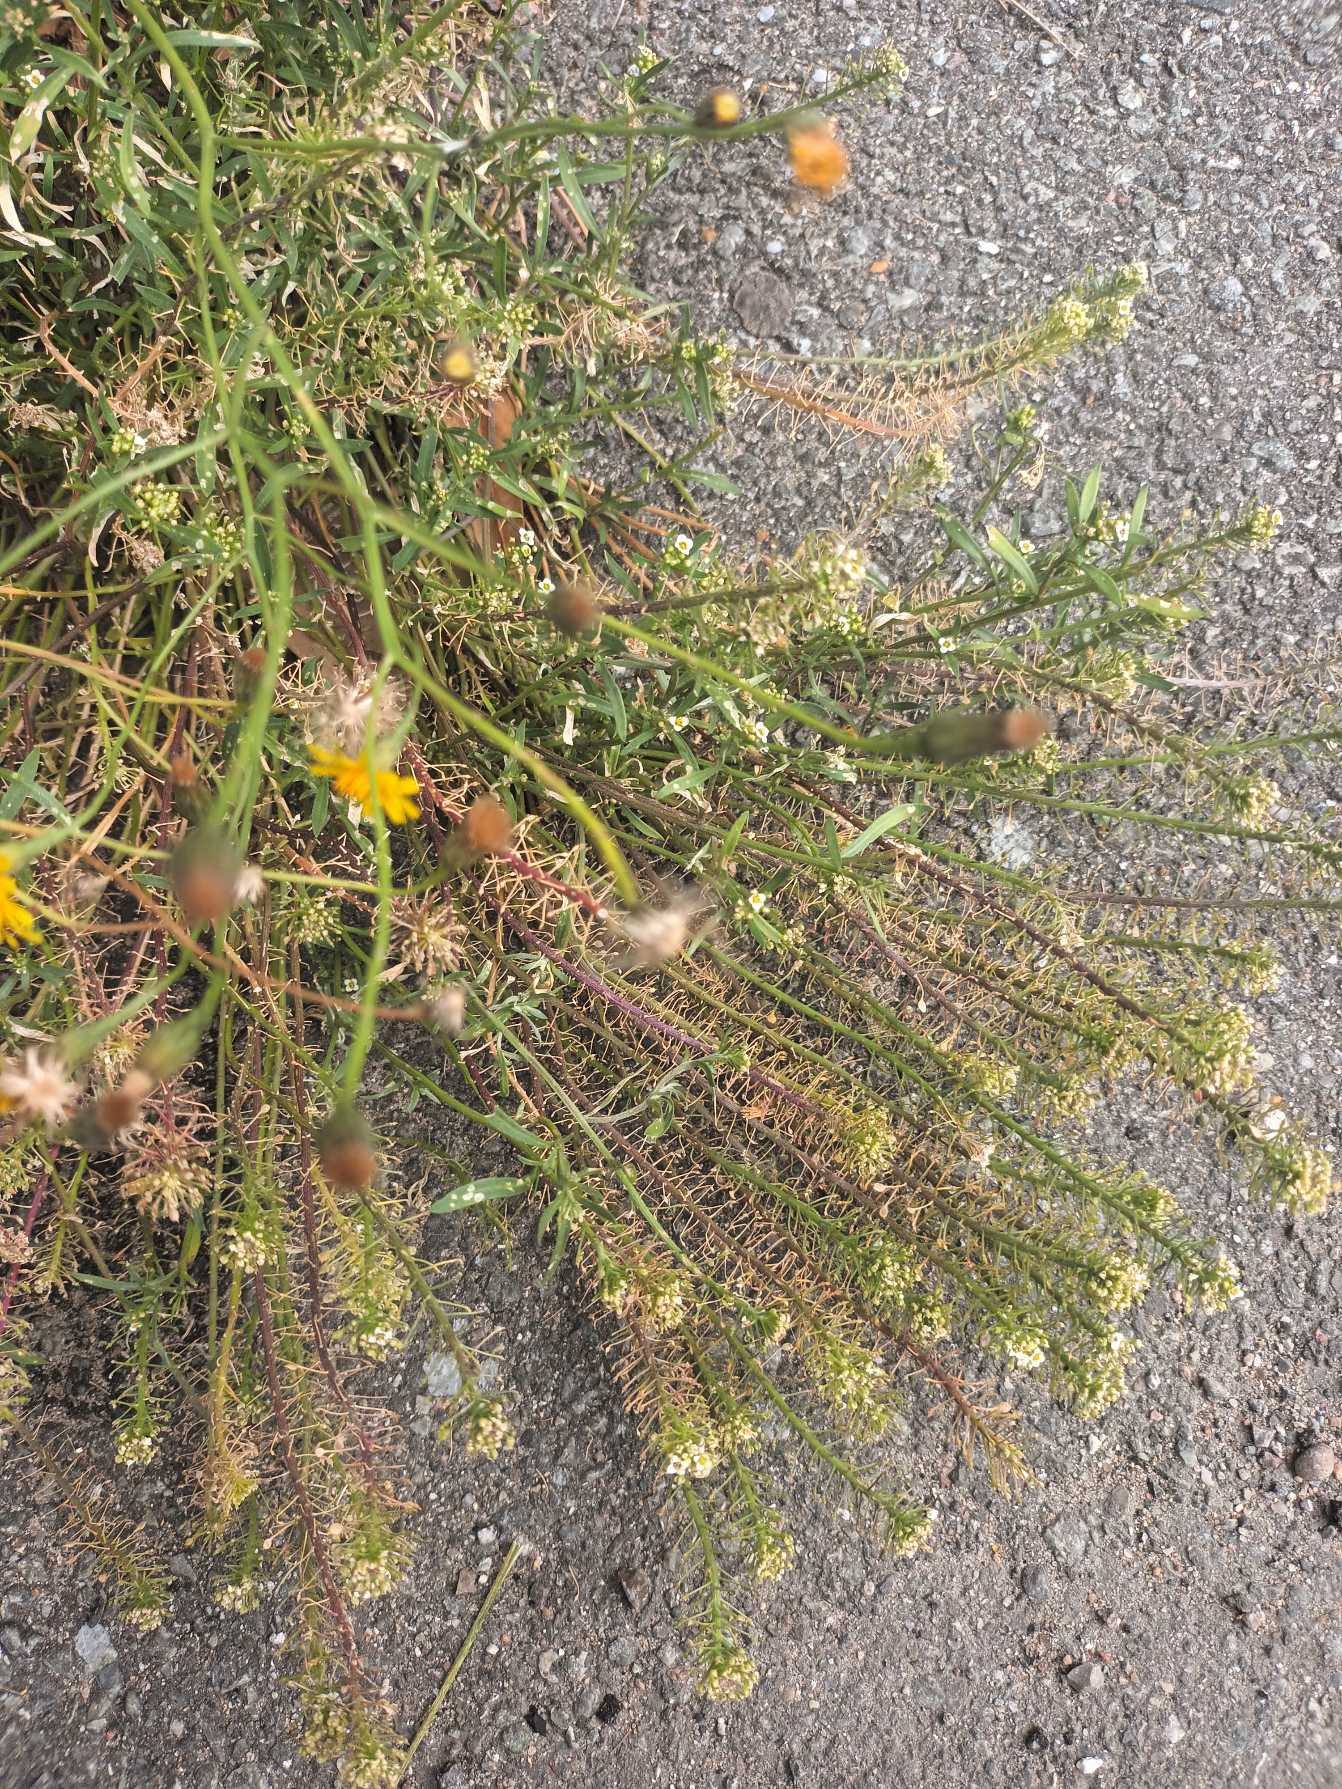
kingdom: Plantae
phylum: Tracheophyta
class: Magnoliopsida
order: Brassicales
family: Brassicaceae
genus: Lobularia
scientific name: Lobularia maritima
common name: Biblomme
